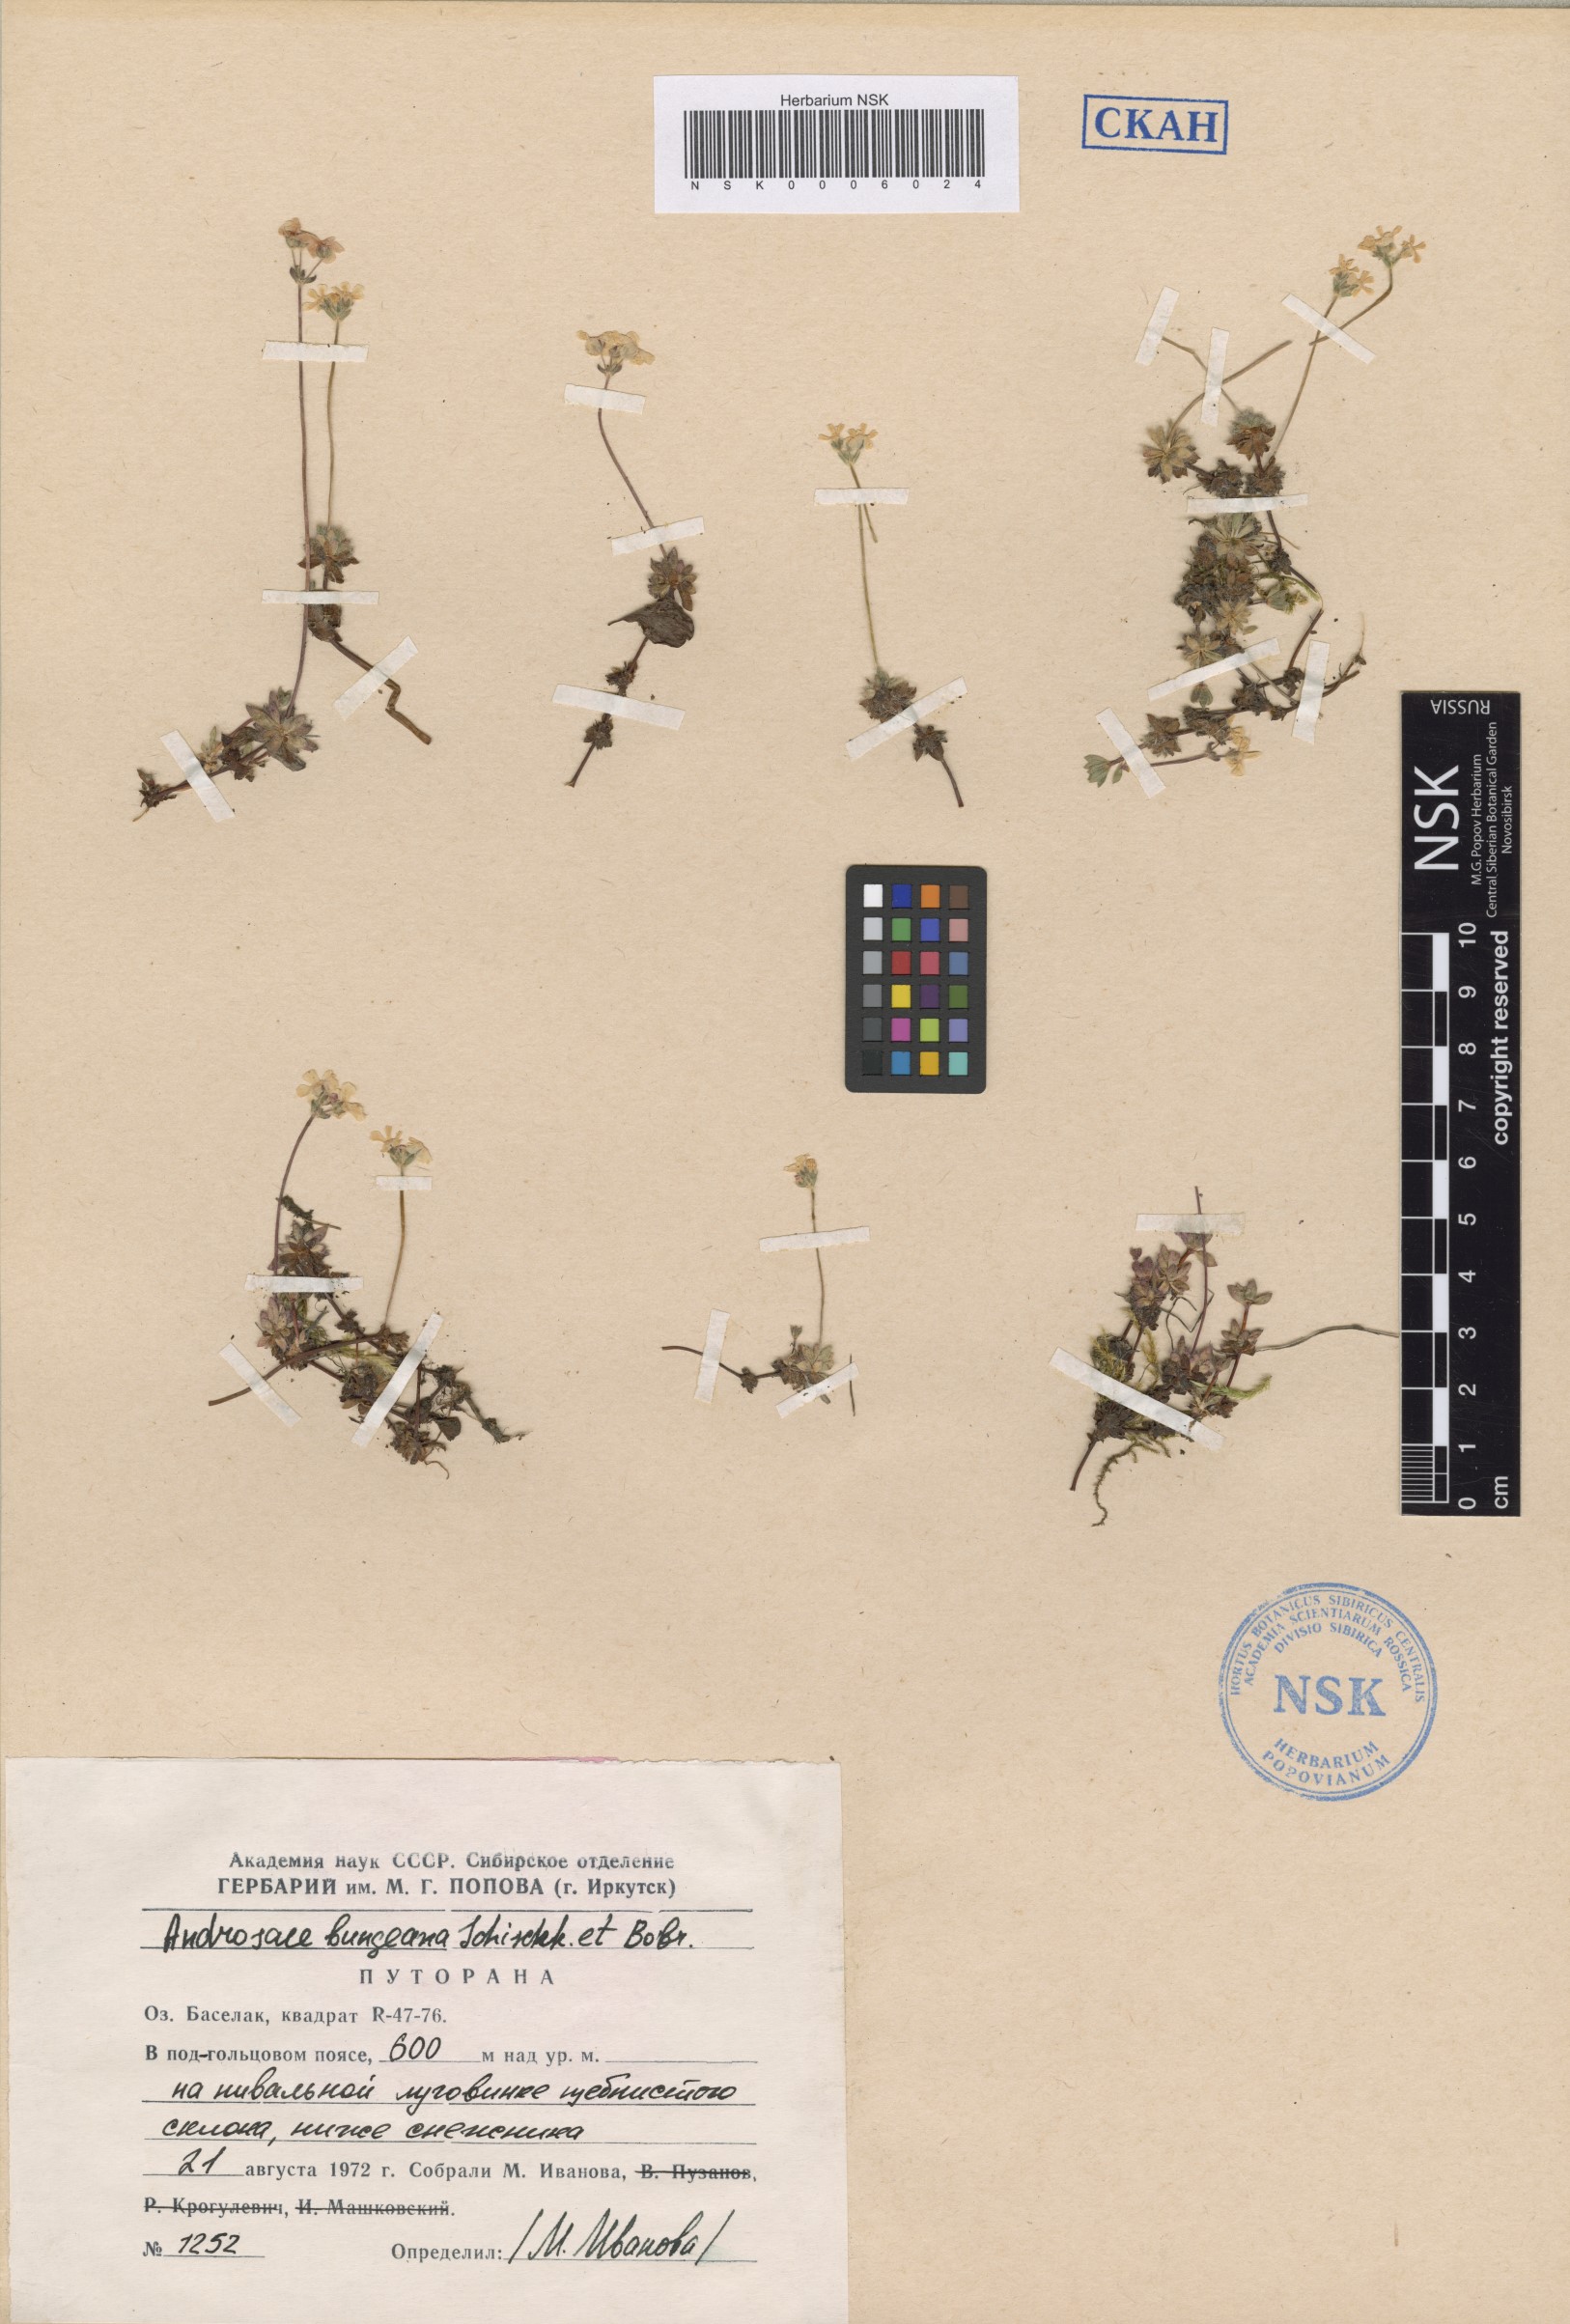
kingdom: Plantae
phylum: Tracheophyta
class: Magnoliopsida
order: Ericales
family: Primulaceae
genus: Androsace
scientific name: Androsace bungeana
